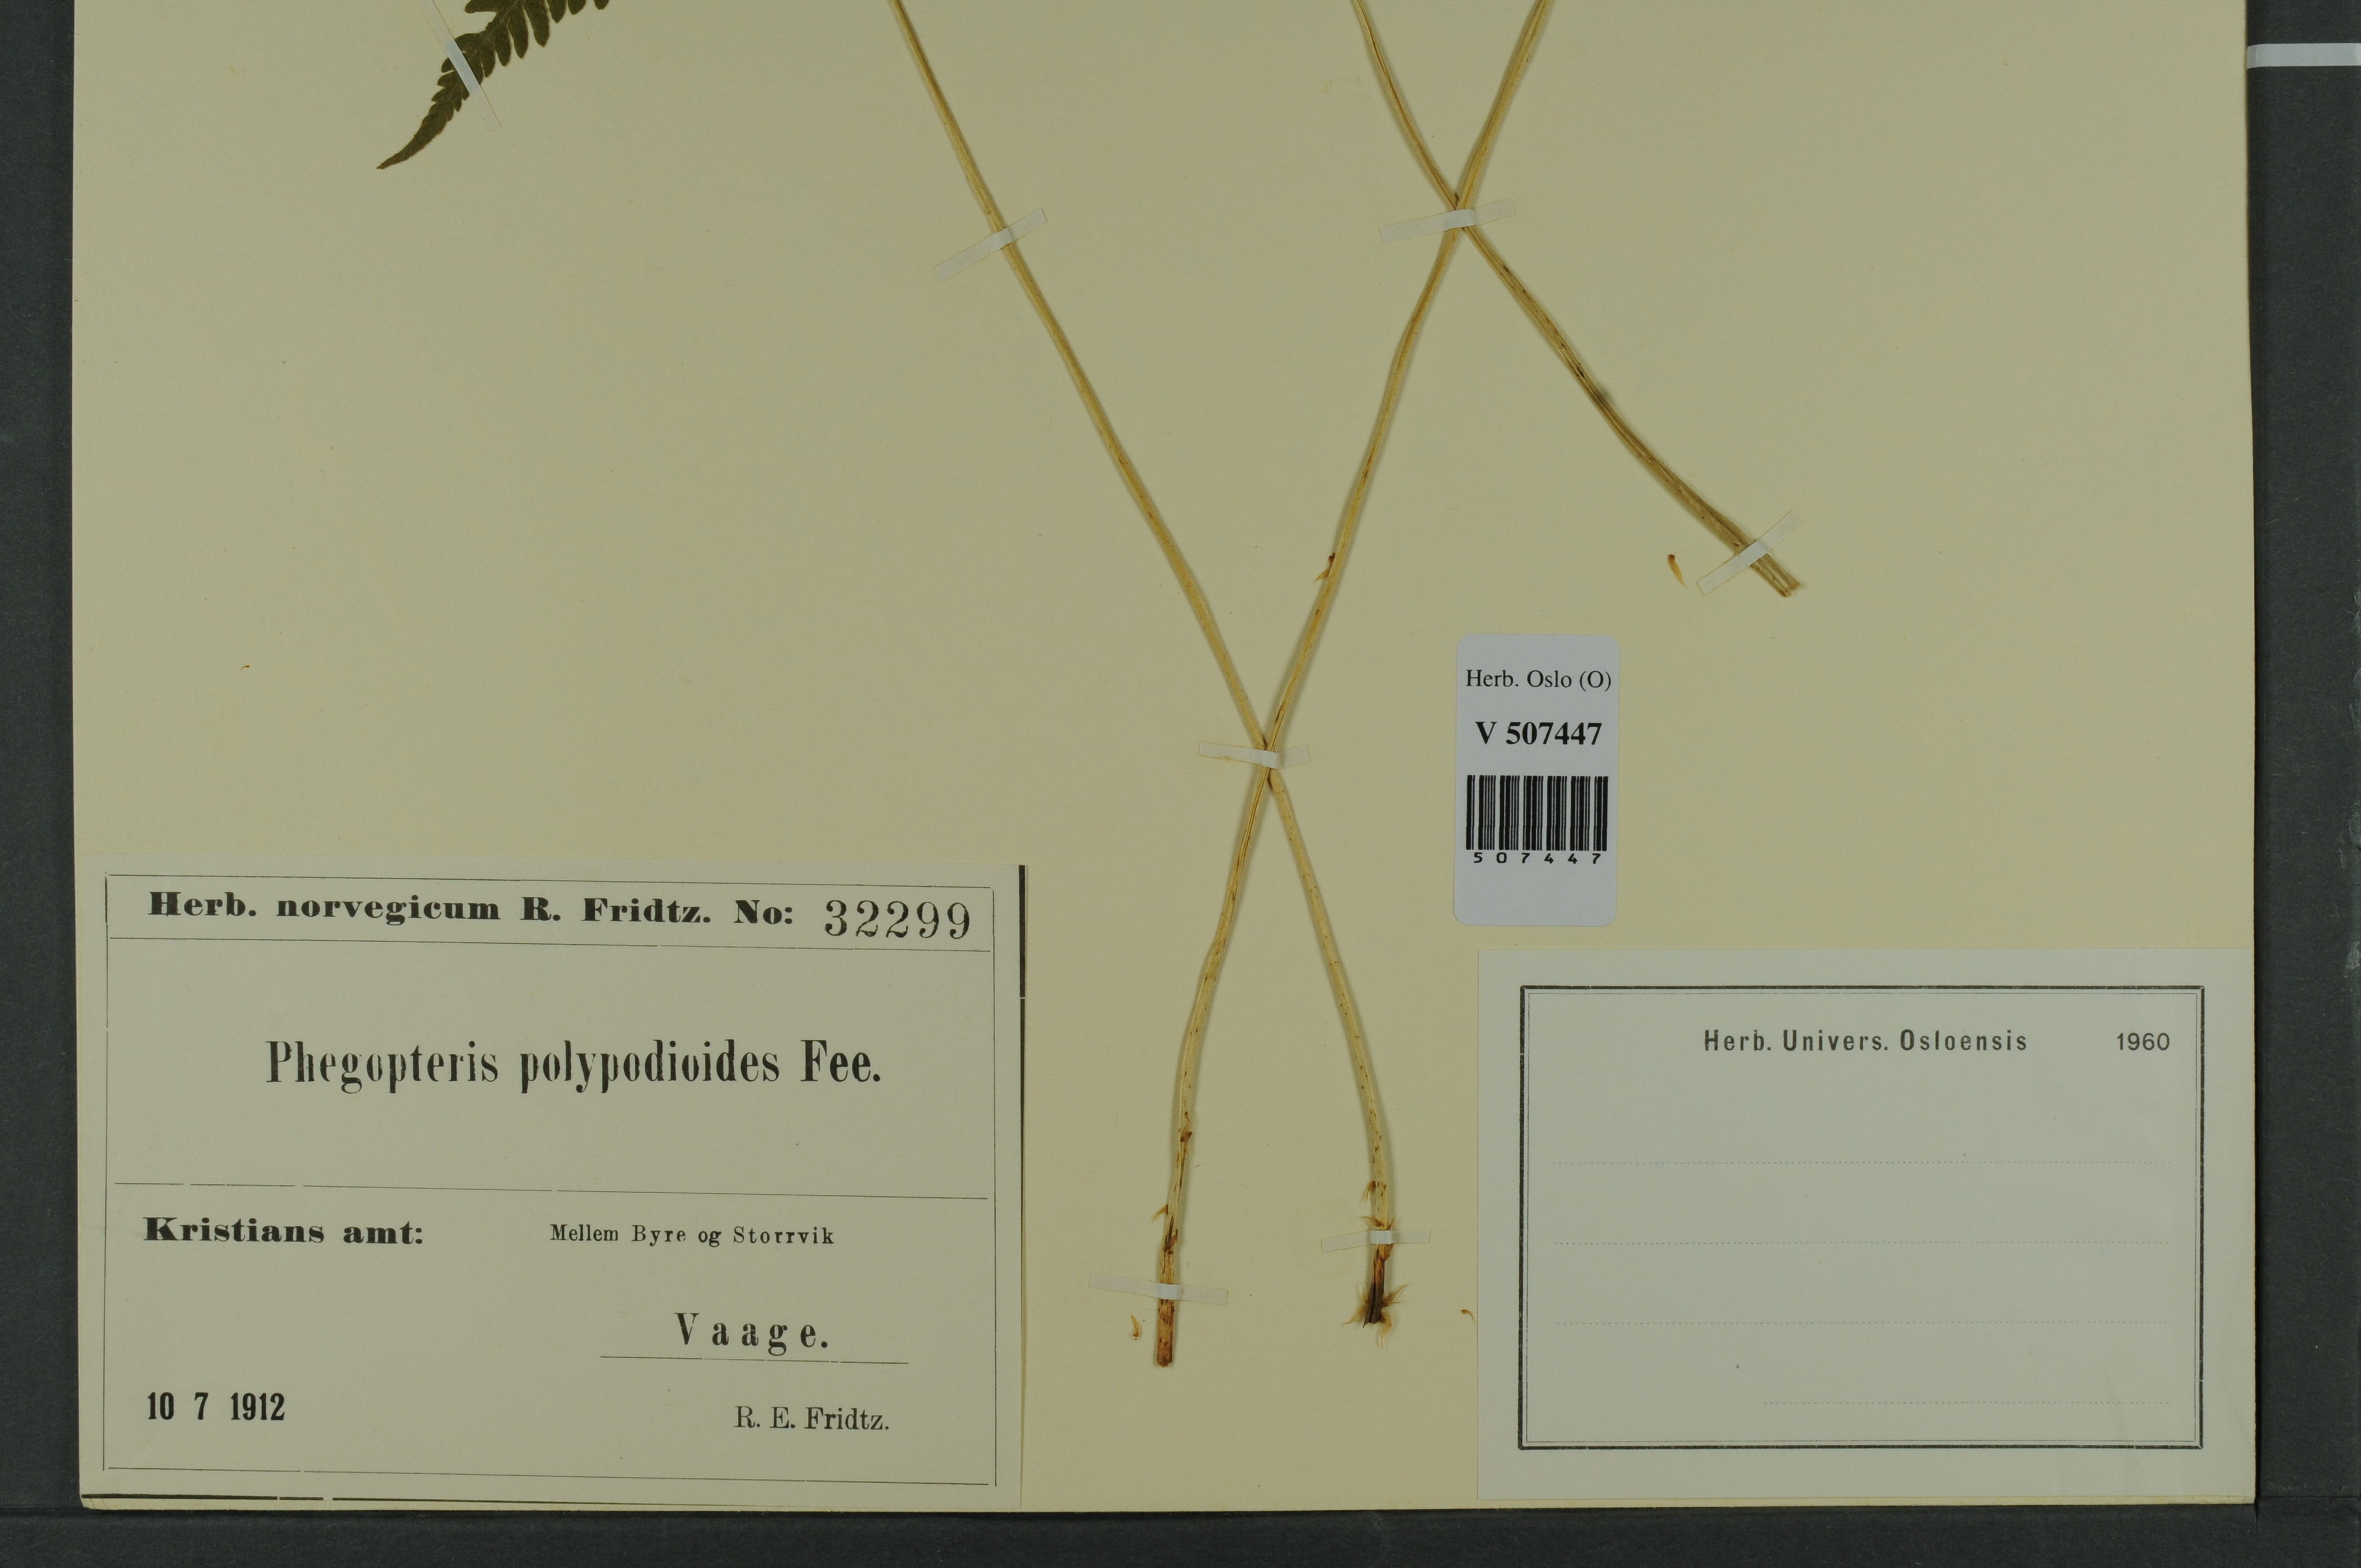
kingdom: Plantae
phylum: Tracheophyta
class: Polypodiopsida
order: Polypodiales
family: Thelypteridaceae
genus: Phegopteris
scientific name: Phegopteris connectilis
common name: Beech fern
